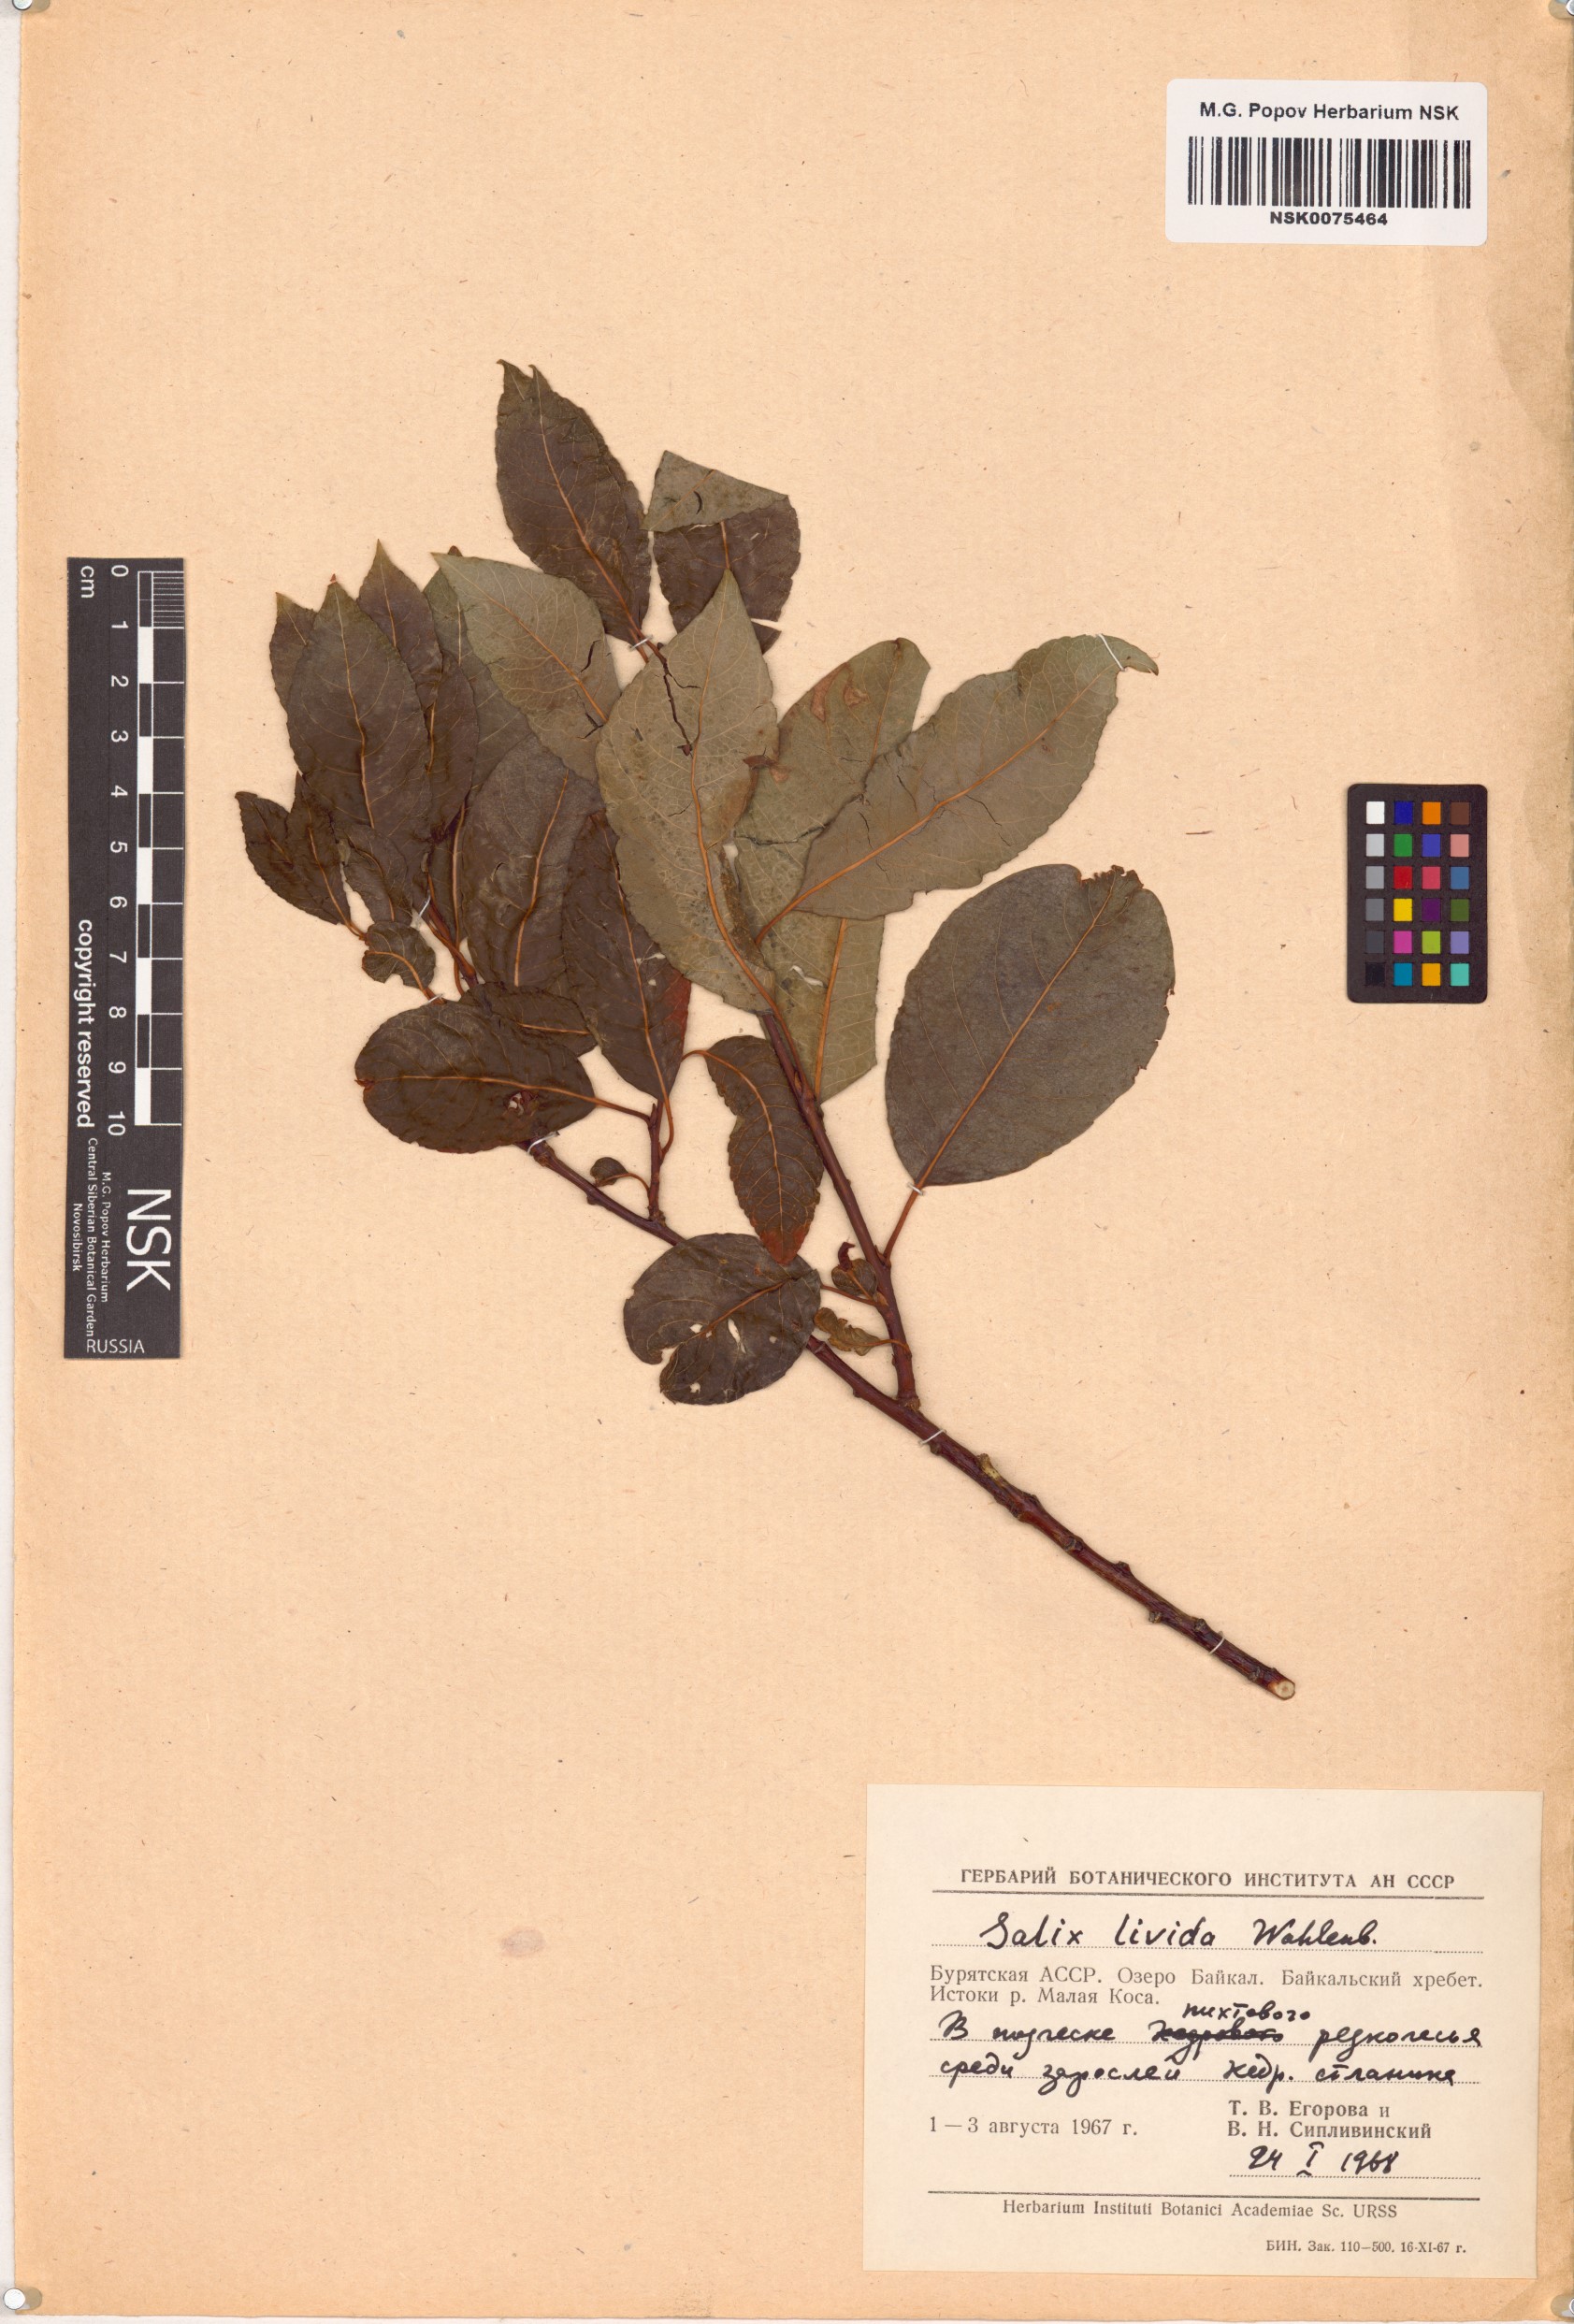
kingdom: Plantae
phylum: Tracheophyta
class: Magnoliopsida
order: Malpighiales
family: Salicaceae
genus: Salix
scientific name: Salix
